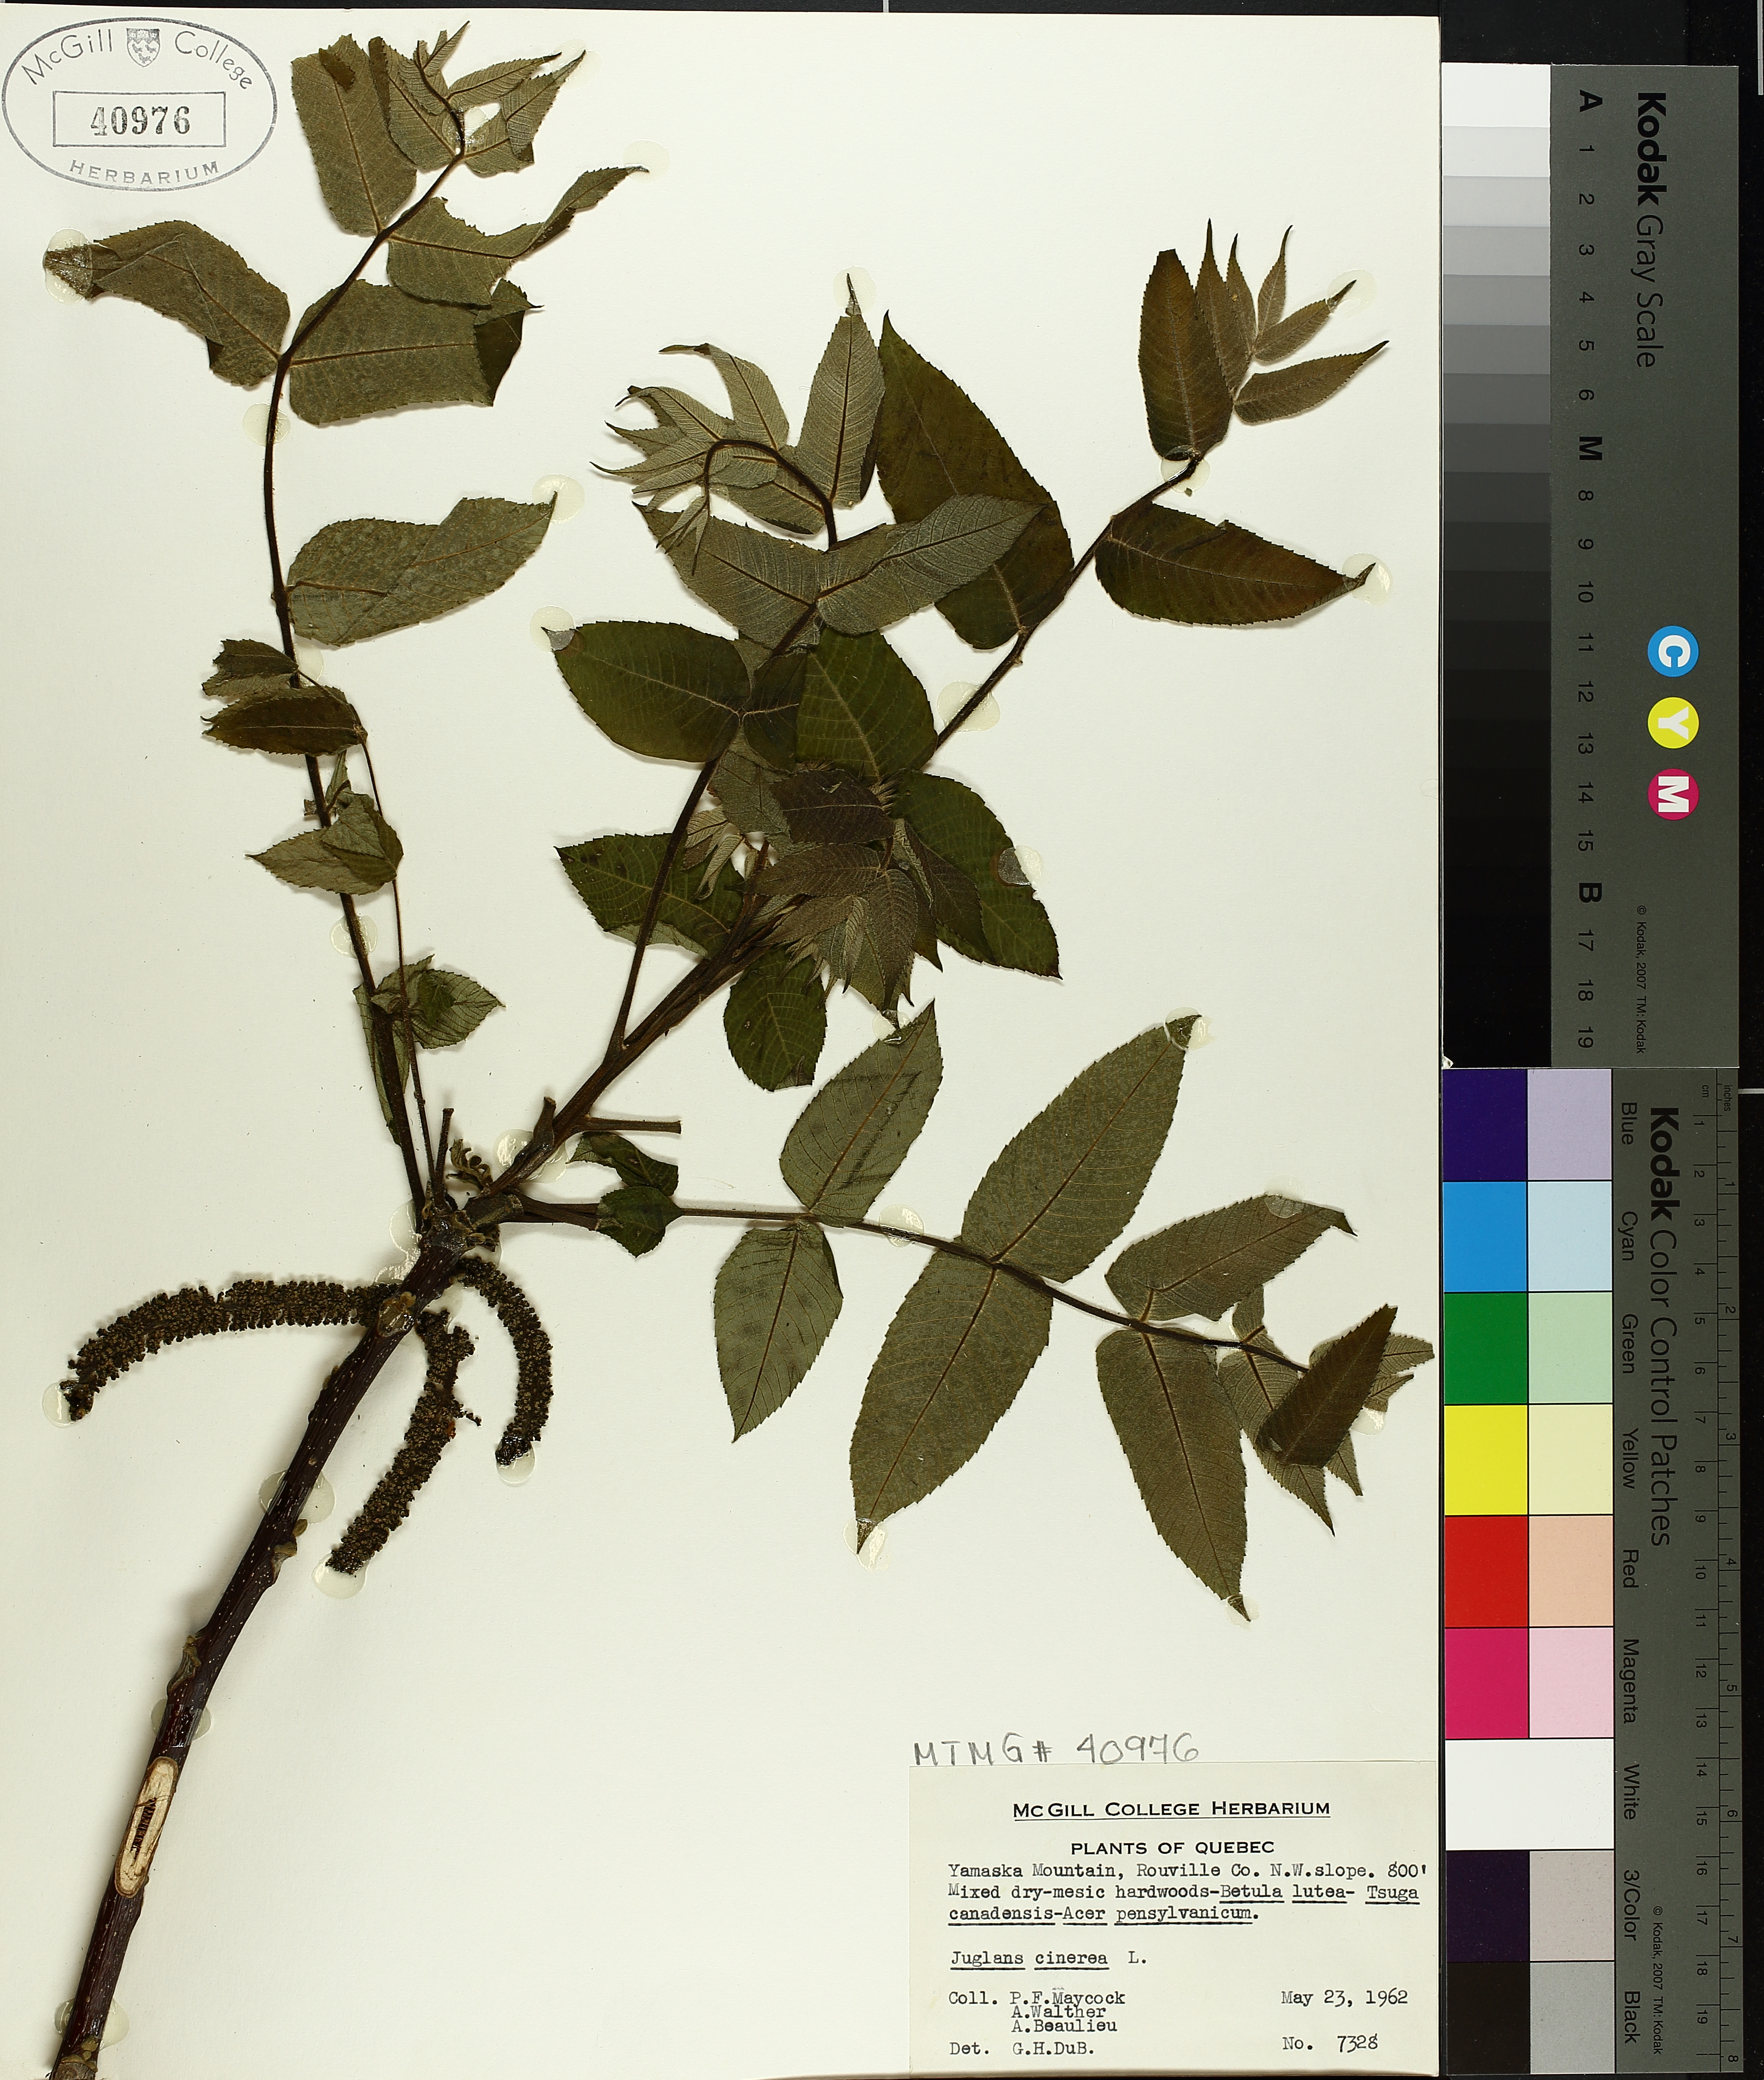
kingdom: Plantae
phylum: Tracheophyta
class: Magnoliopsida
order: Fagales
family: Juglandaceae
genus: Juglans
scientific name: Juglans cinerea
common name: Butternut
